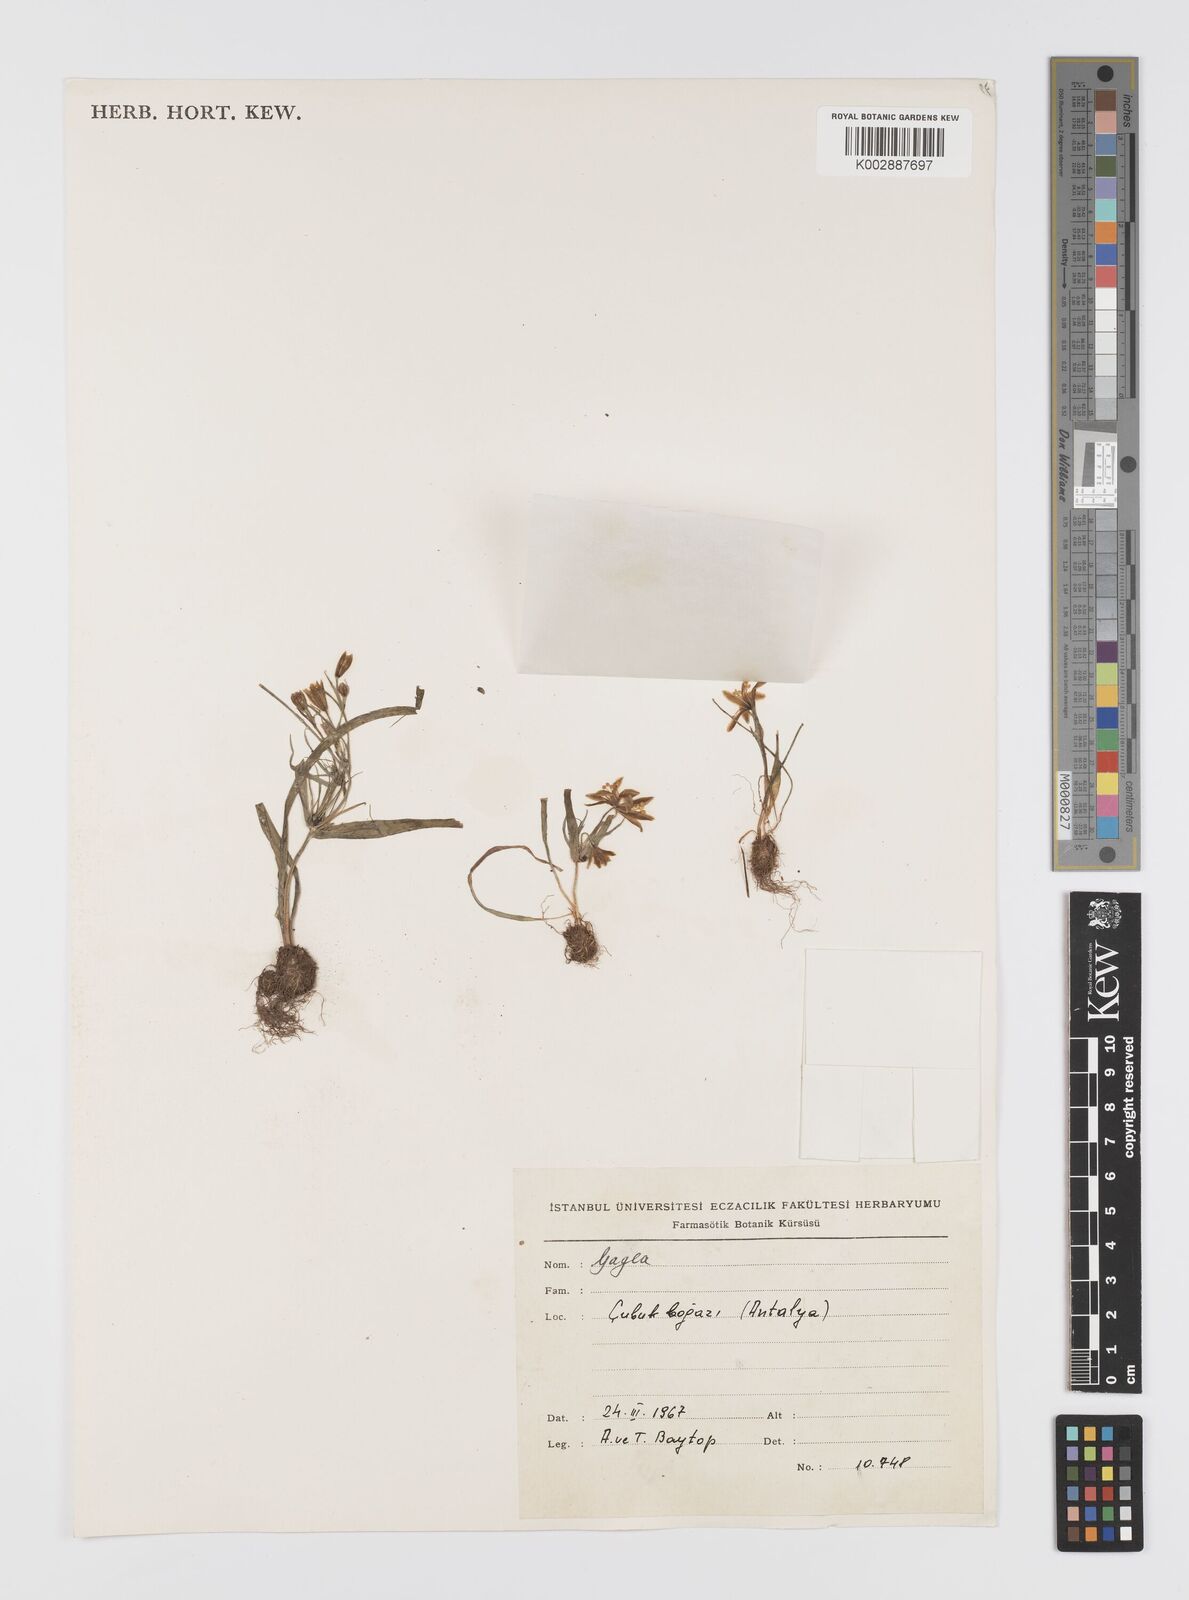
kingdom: Plantae
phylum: Tracheophyta
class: Liliopsida
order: Liliales
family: Liliaceae
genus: Gagea
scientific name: Gagea dubia
